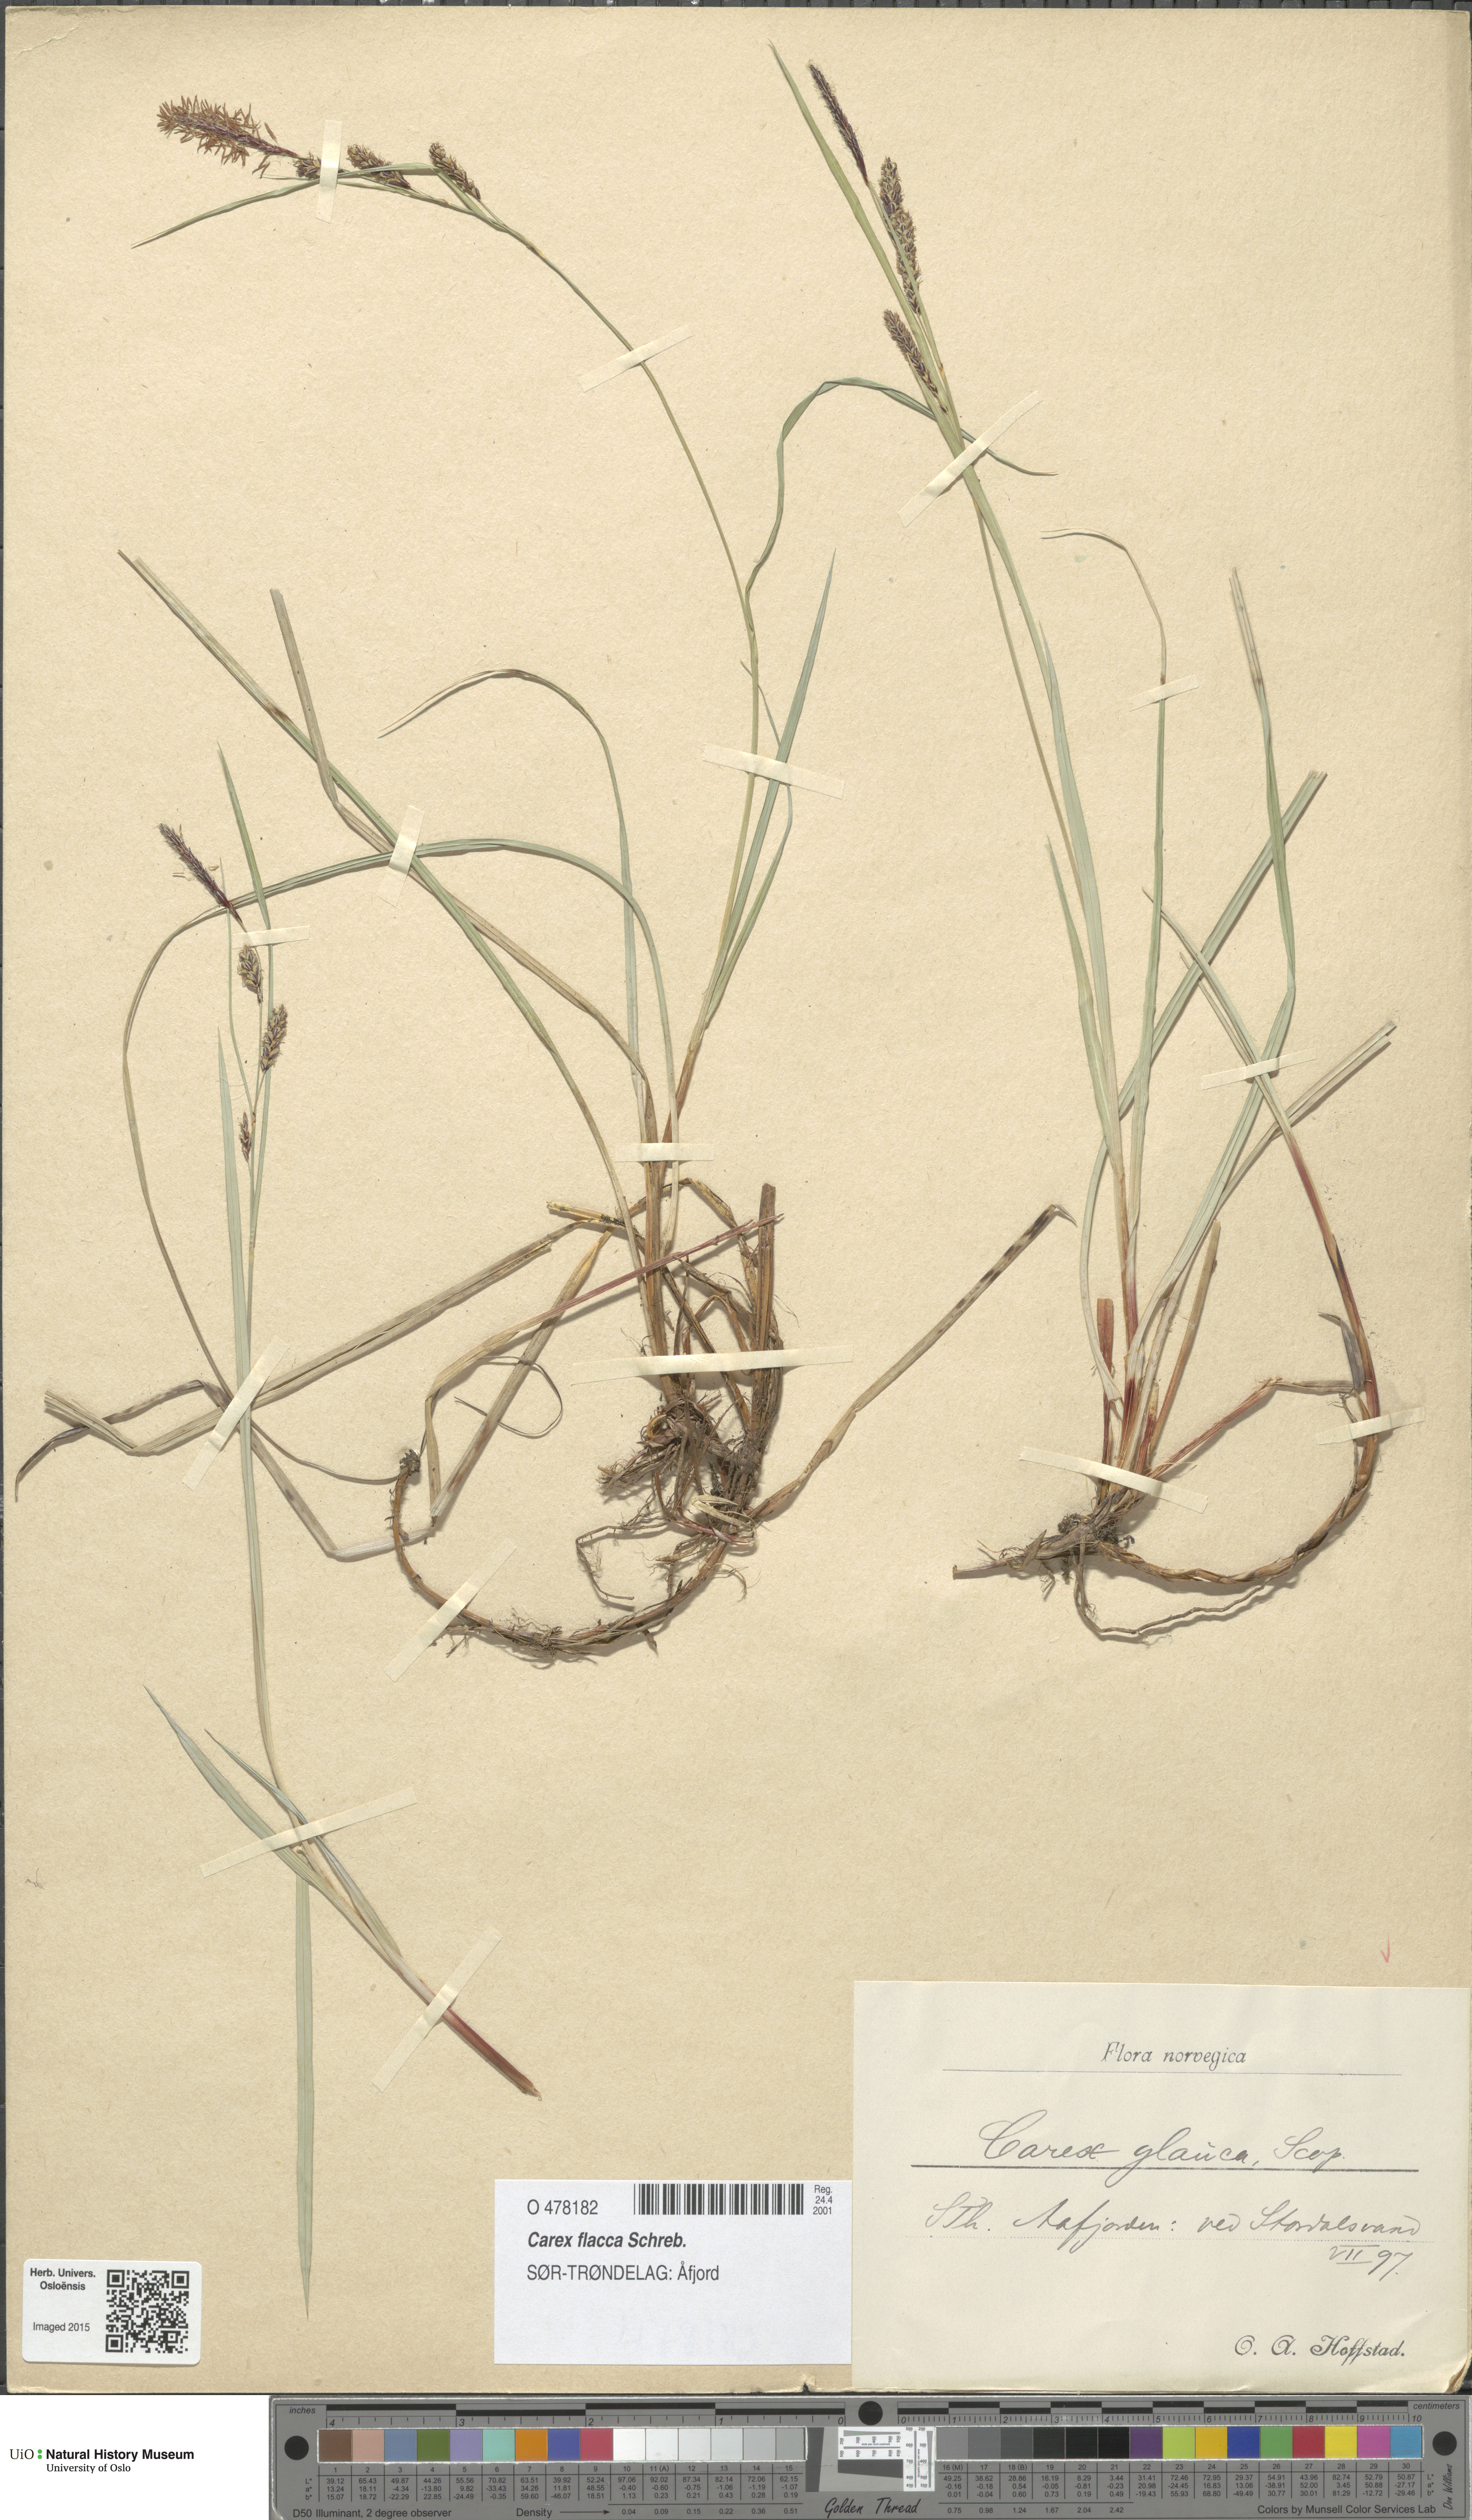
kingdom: Plantae
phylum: Tracheophyta
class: Liliopsida
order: Poales
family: Cyperaceae
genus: Carex
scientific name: Carex flacca
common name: Glaucous sedge
